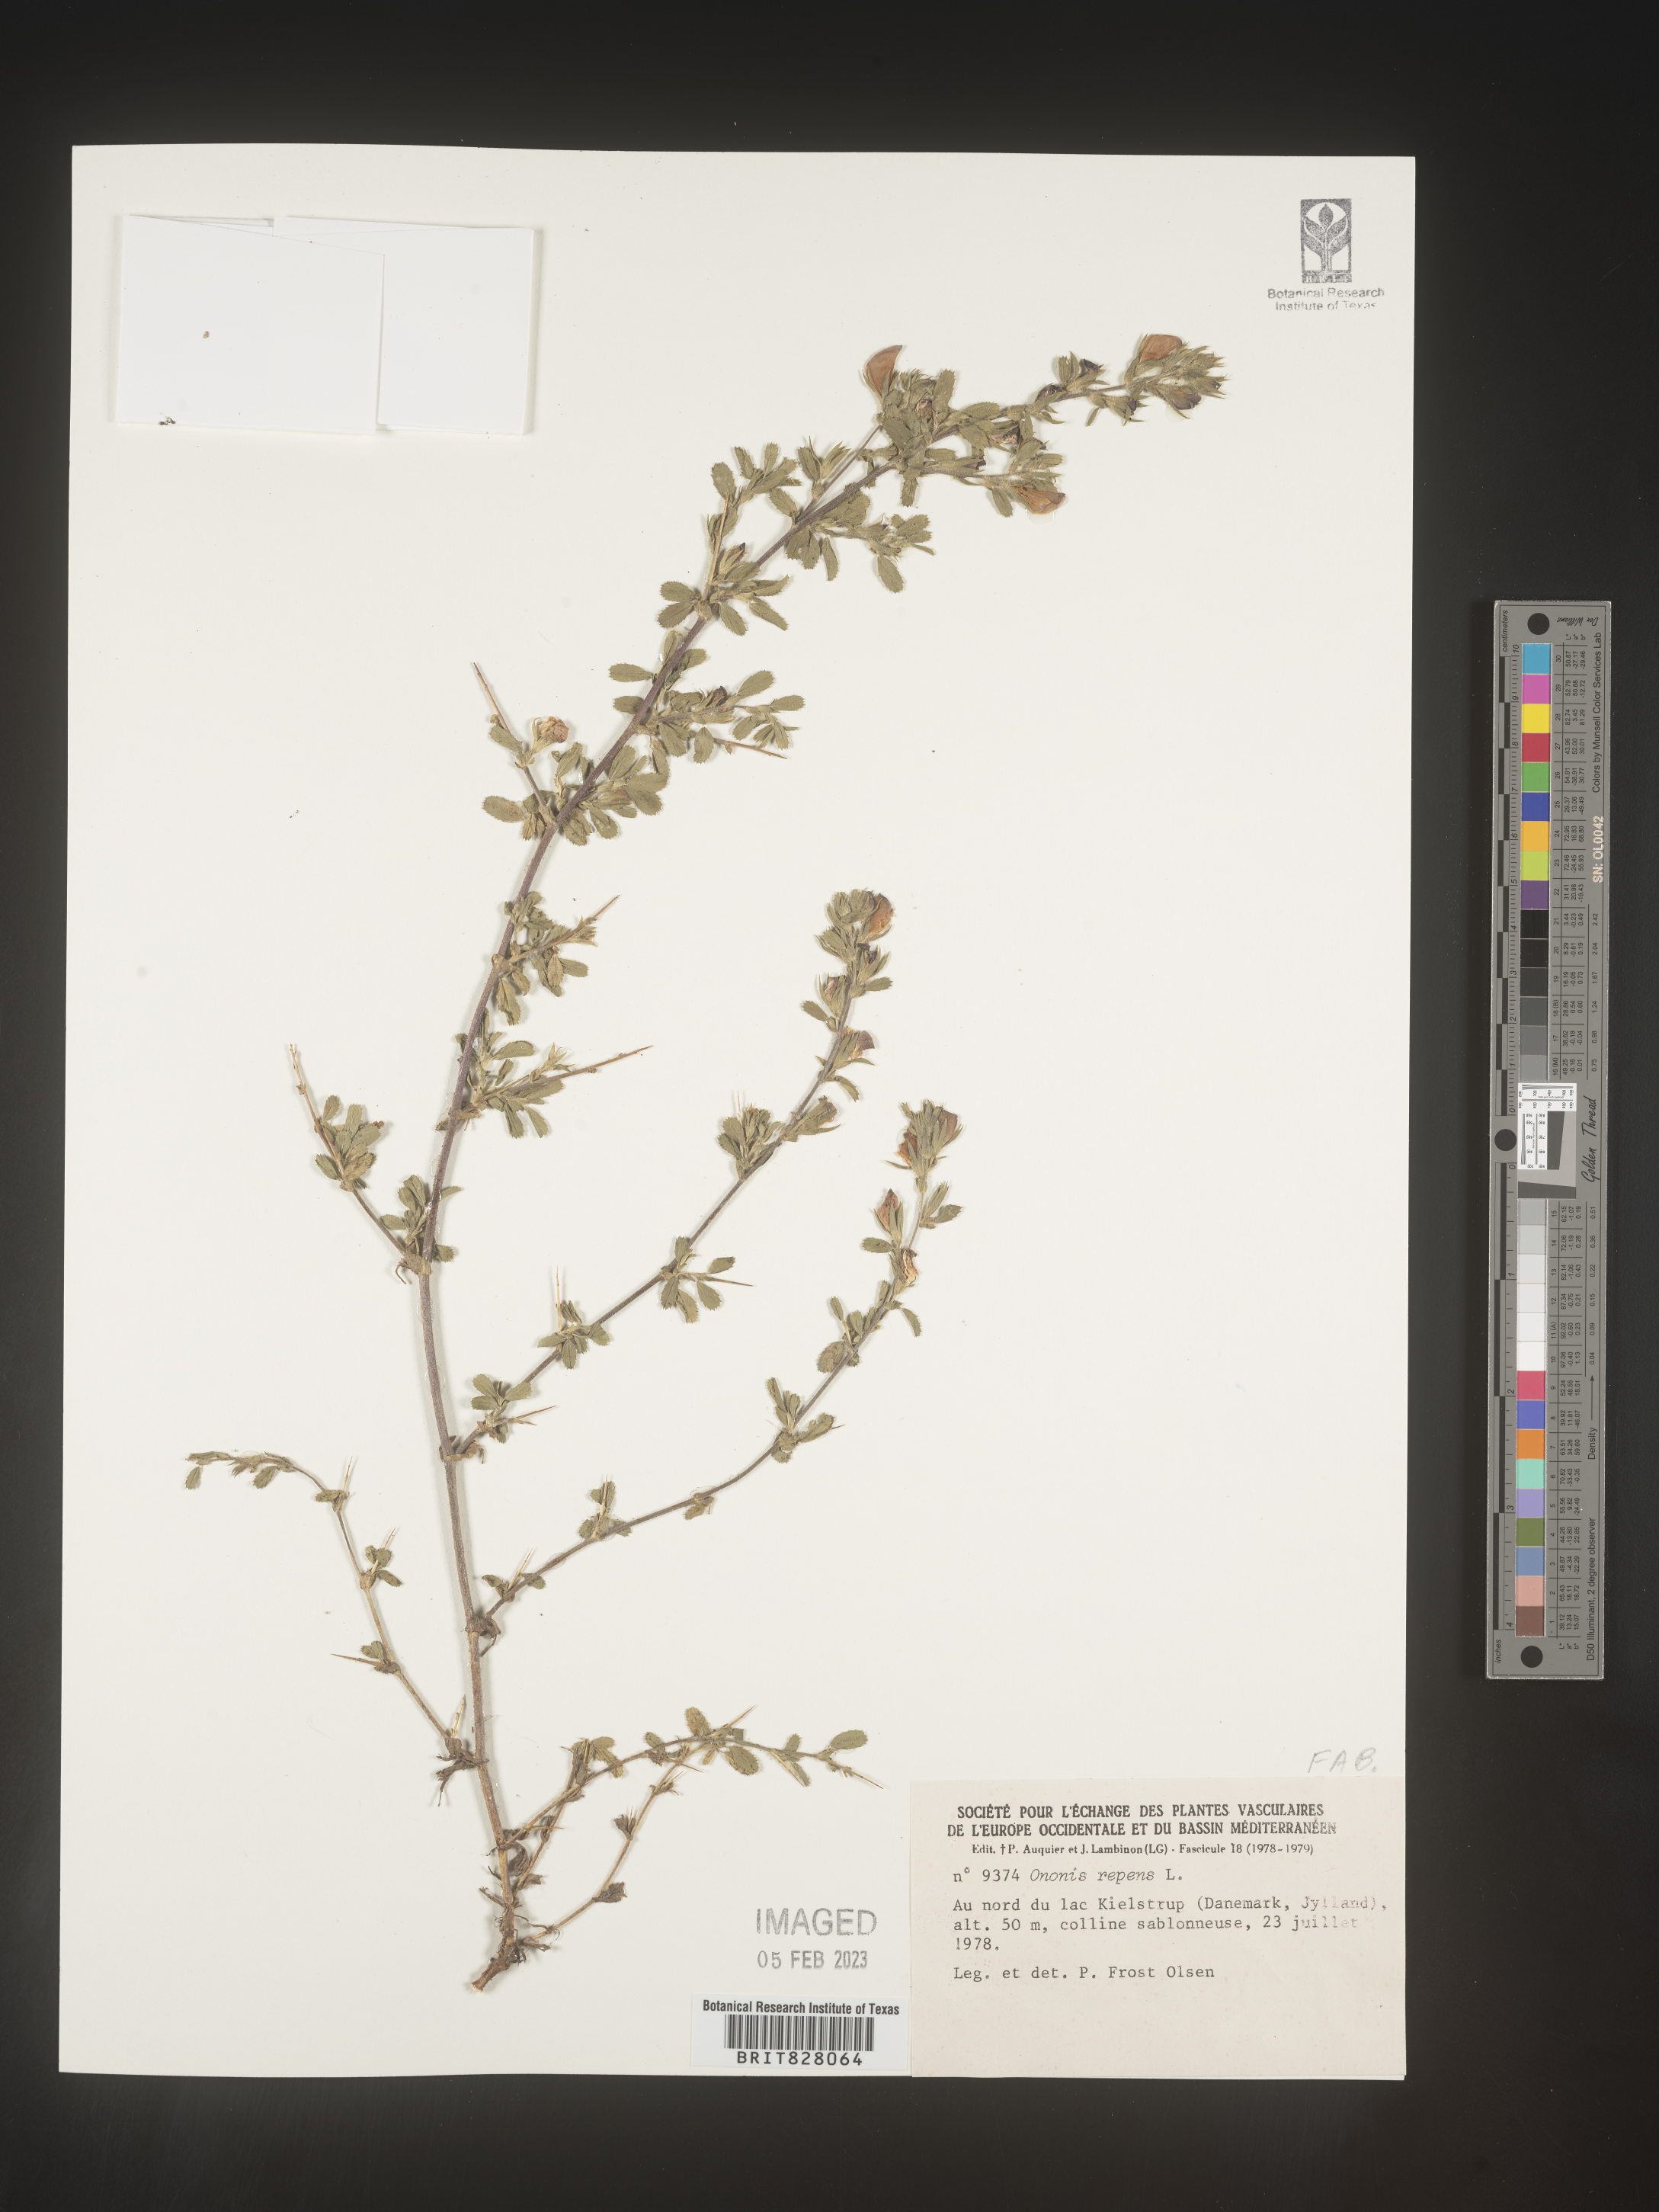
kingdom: Plantae
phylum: Tracheophyta
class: Magnoliopsida
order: Fabales
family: Fabaceae
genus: Ononis
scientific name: Ononis
